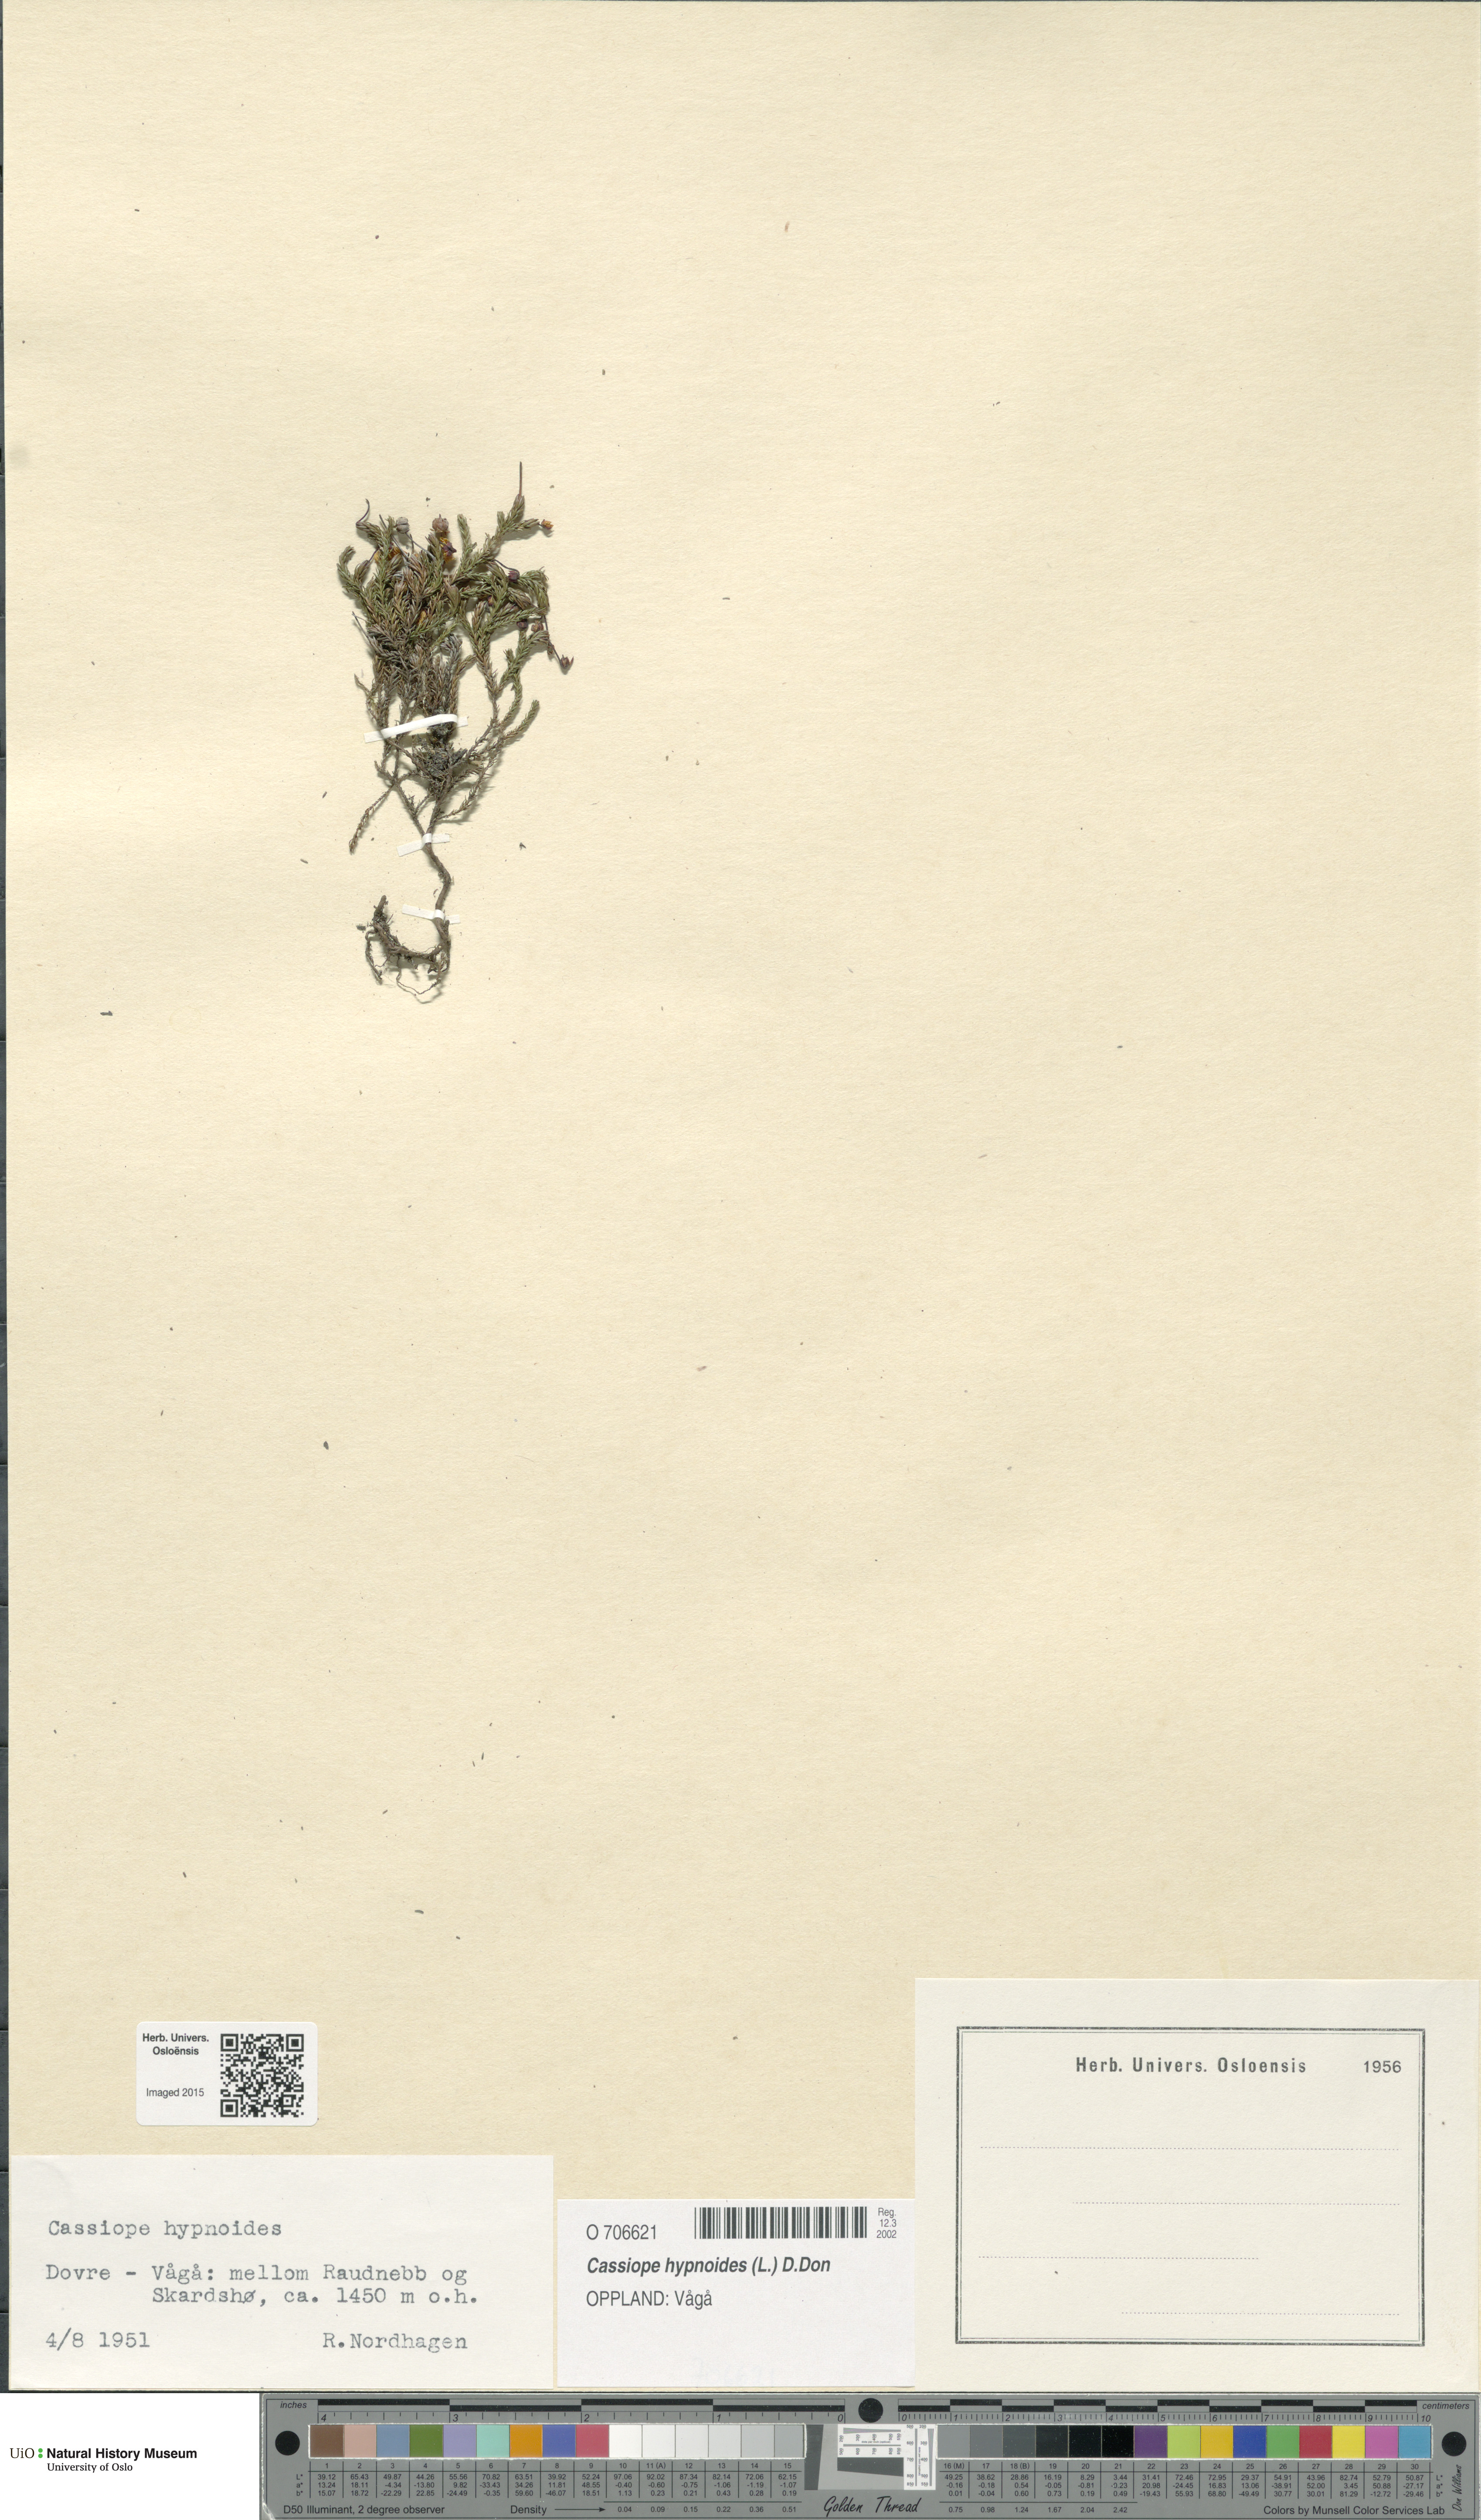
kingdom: Plantae
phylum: Tracheophyta
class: Magnoliopsida
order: Ericales
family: Ericaceae
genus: Harrimanella
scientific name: Harrimanella hypnoides
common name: Moss bell heather
